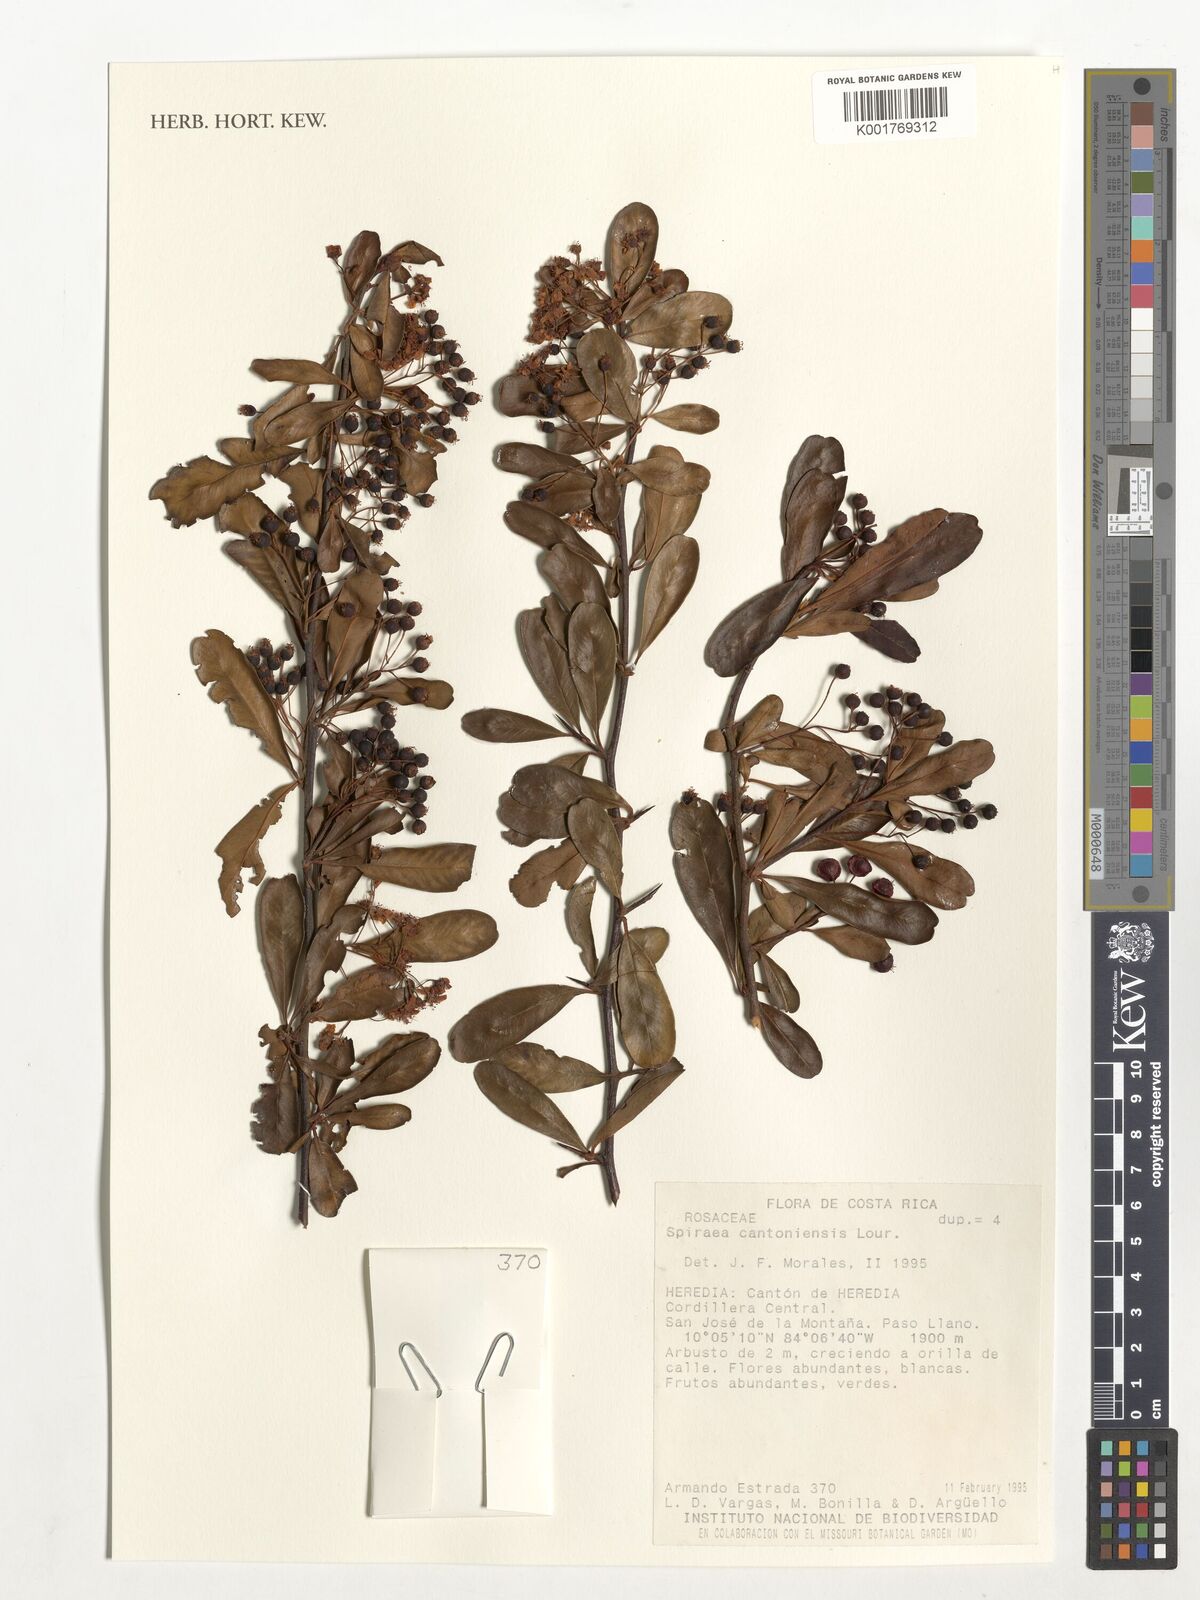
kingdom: Plantae
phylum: Tracheophyta
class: Magnoliopsida
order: Rosales
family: Rosaceae
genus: Spiraea
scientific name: Spiraea cantoniensis
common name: Reeves' meadowsweet
